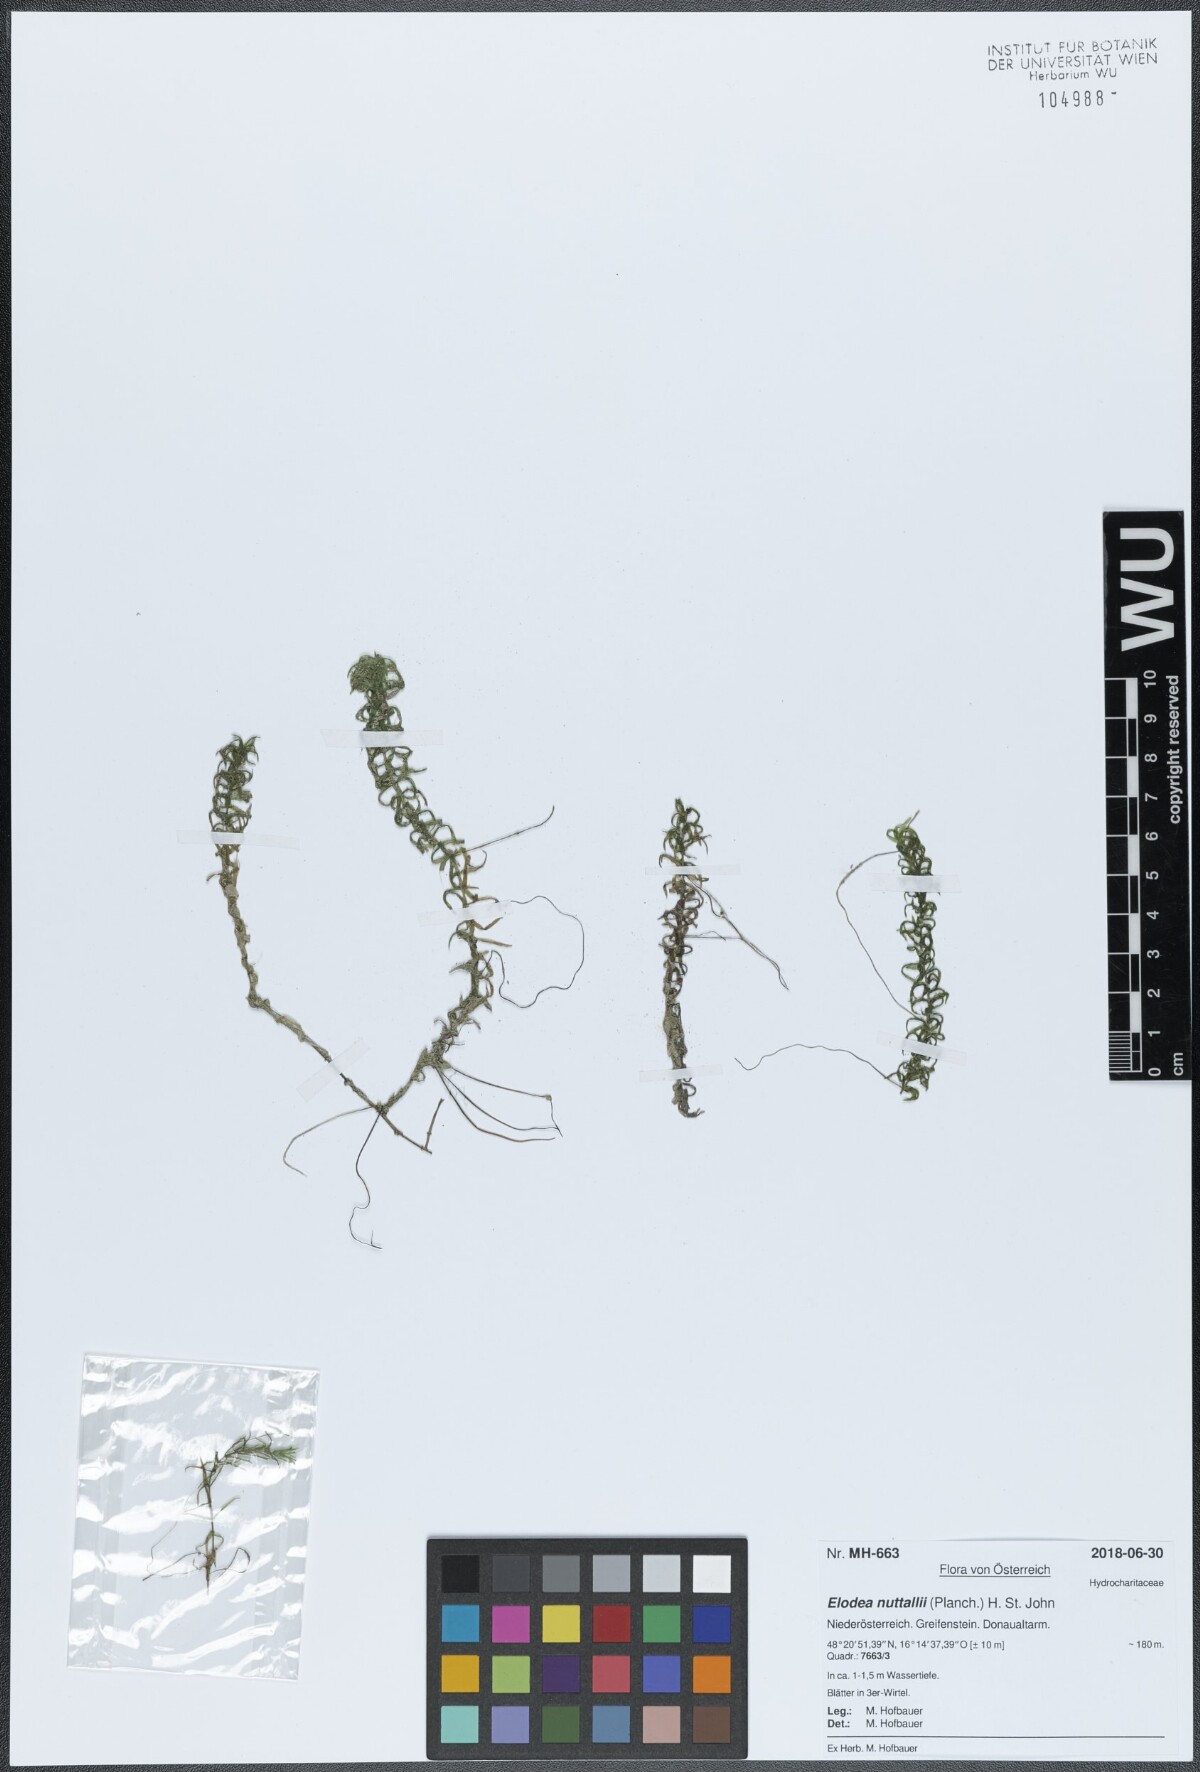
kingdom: Plantae
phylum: Tracheophyta
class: Liliopsida
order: Alismatales
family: Hydrocharitaceae
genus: Elodea
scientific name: Elodea nuttallii
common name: Nuttall's waterweed
